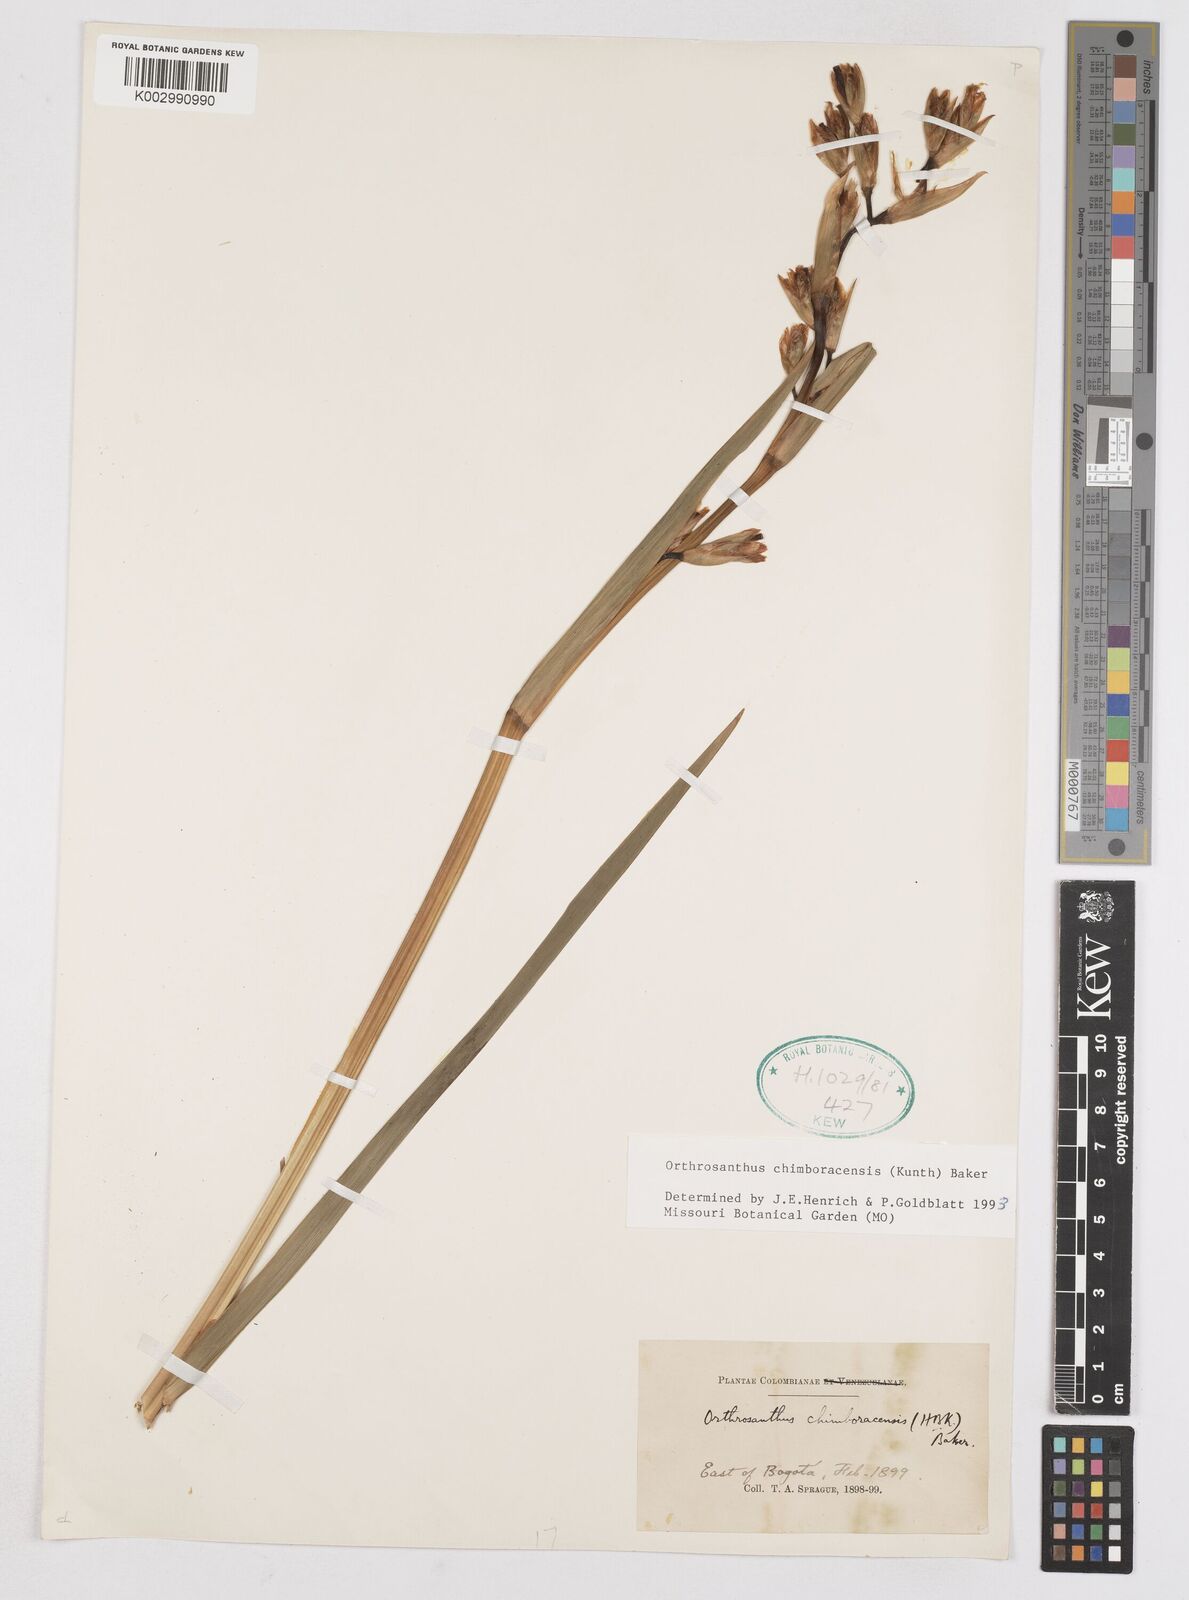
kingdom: Plantae
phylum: Tracheophyta
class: Liliopsida
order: Asparagales
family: Iridaceae
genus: Orthrosanthus
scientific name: Orthrosanthus chimboracensis
